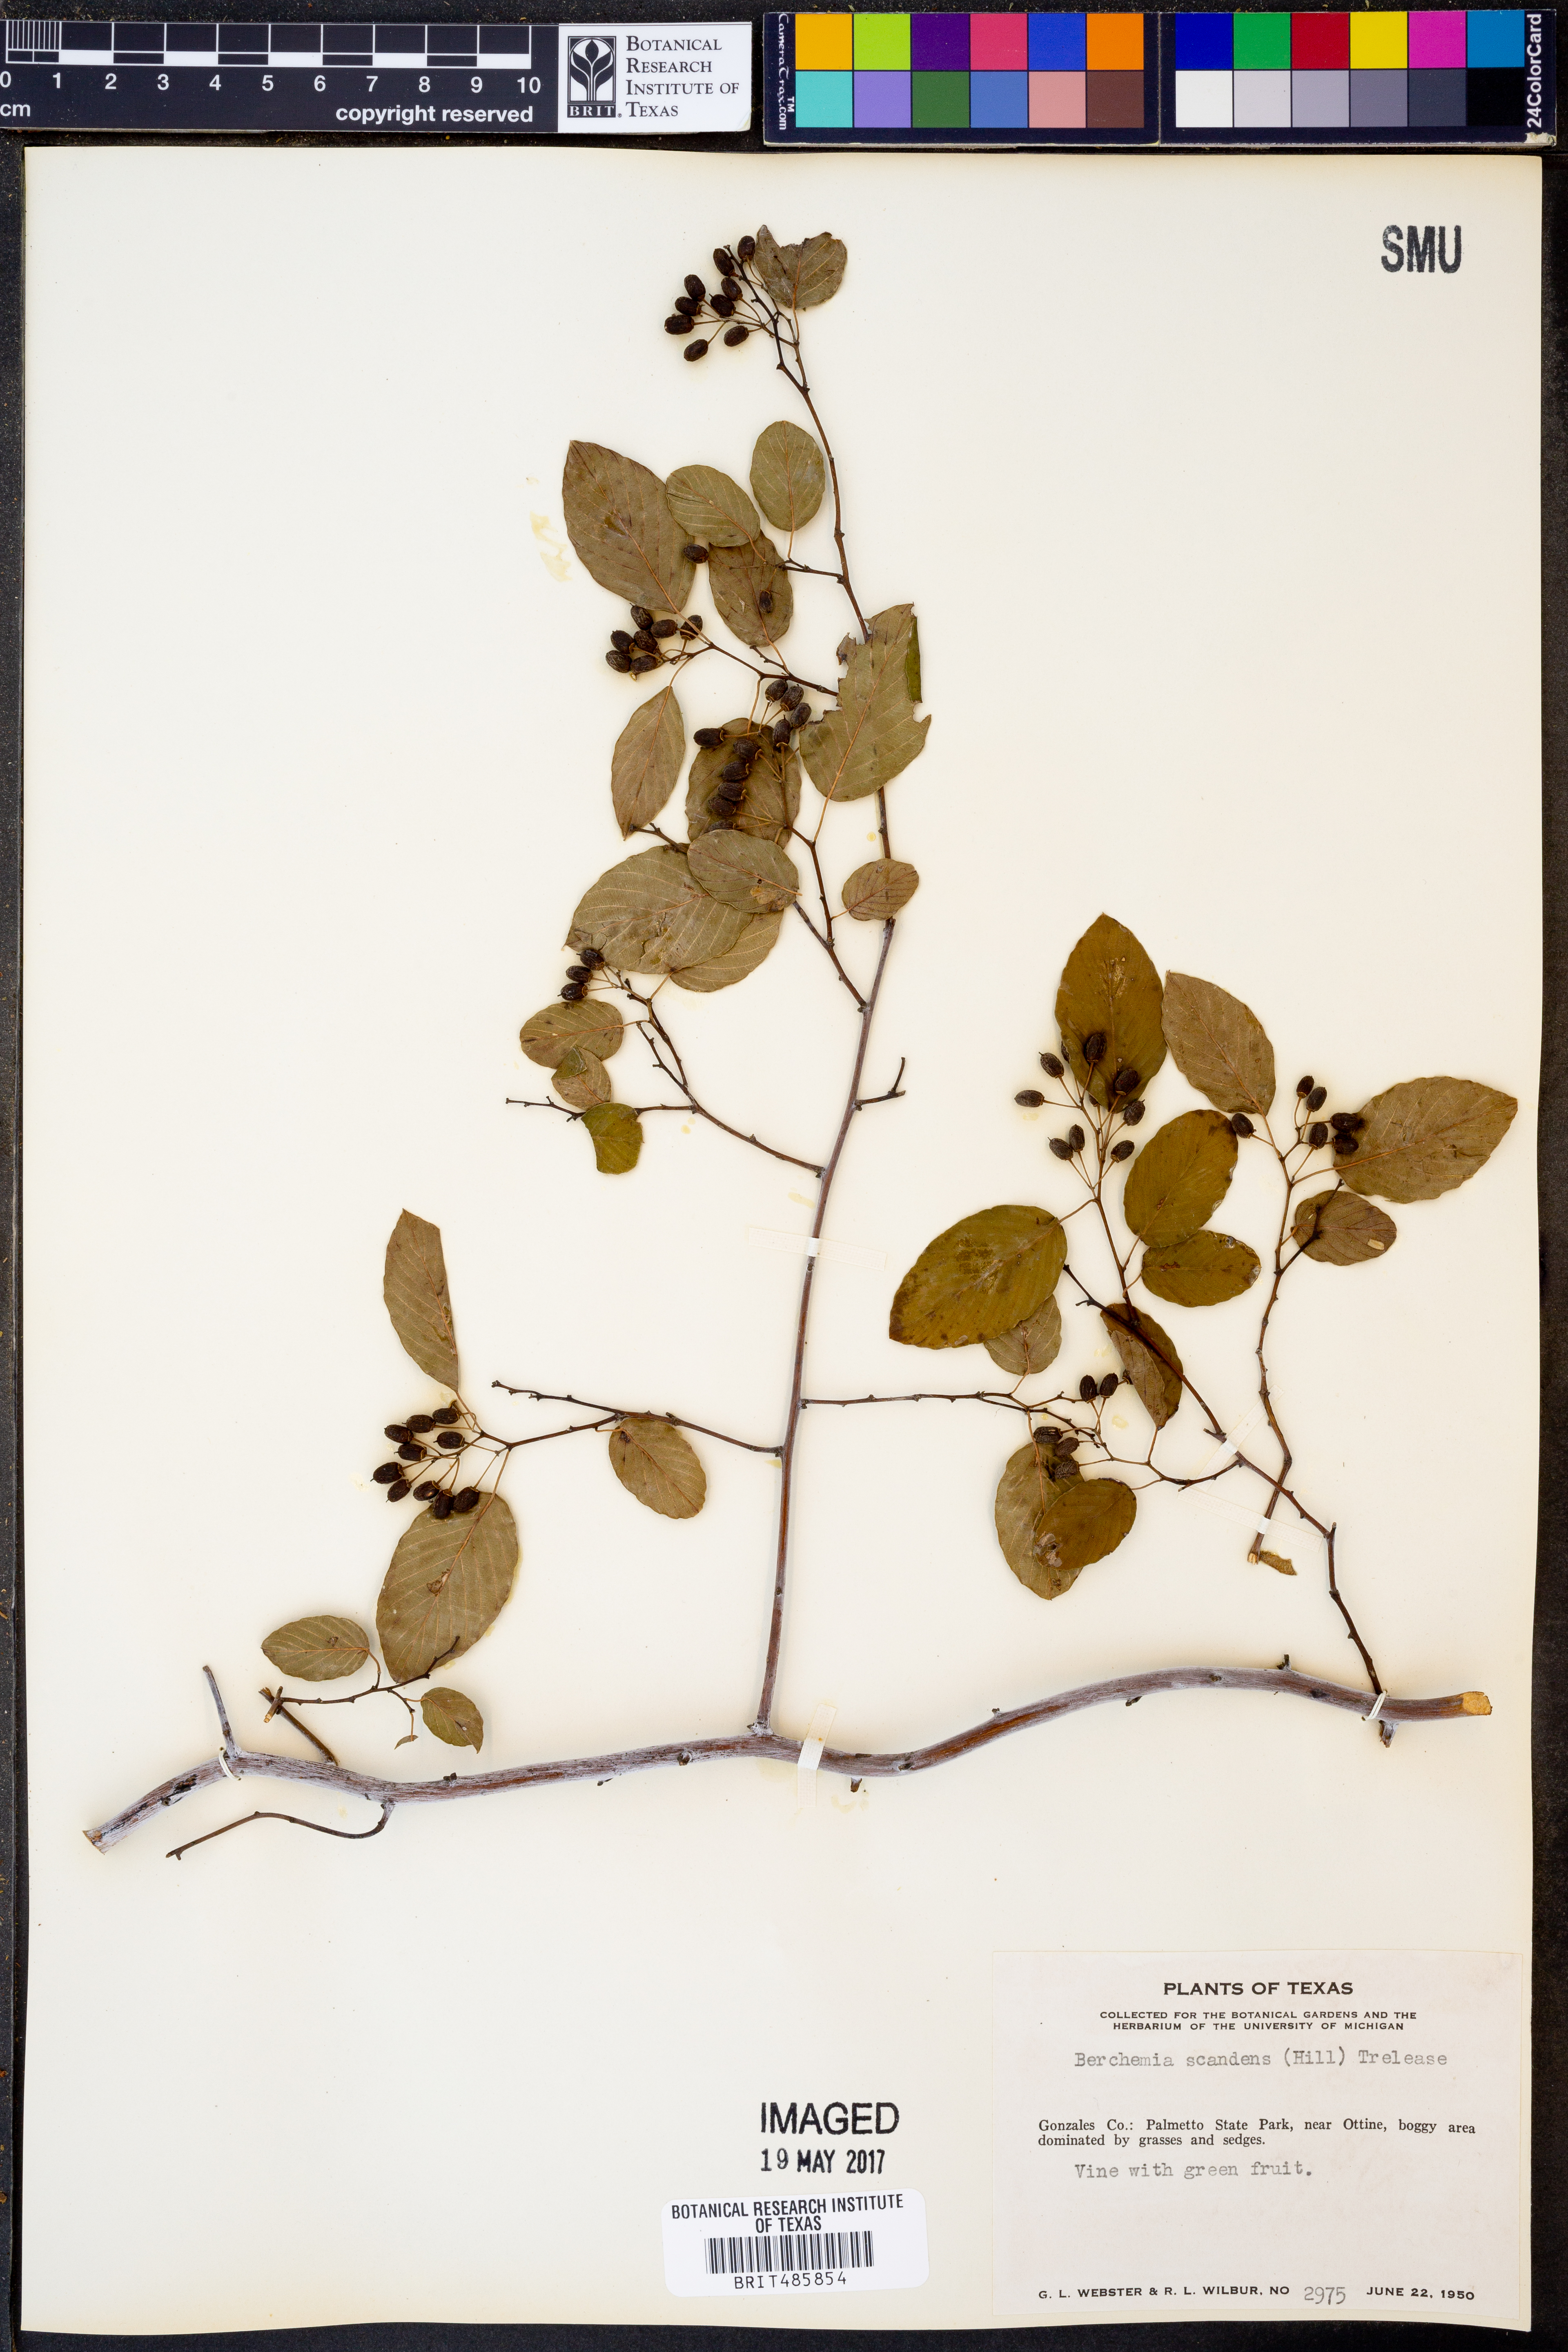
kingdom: Plantae
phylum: Tracheophyta
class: Magnoliopsida
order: Rosales
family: Rhamnaceae
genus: Berchemia
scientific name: Berchemia scandens
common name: Supplejack
